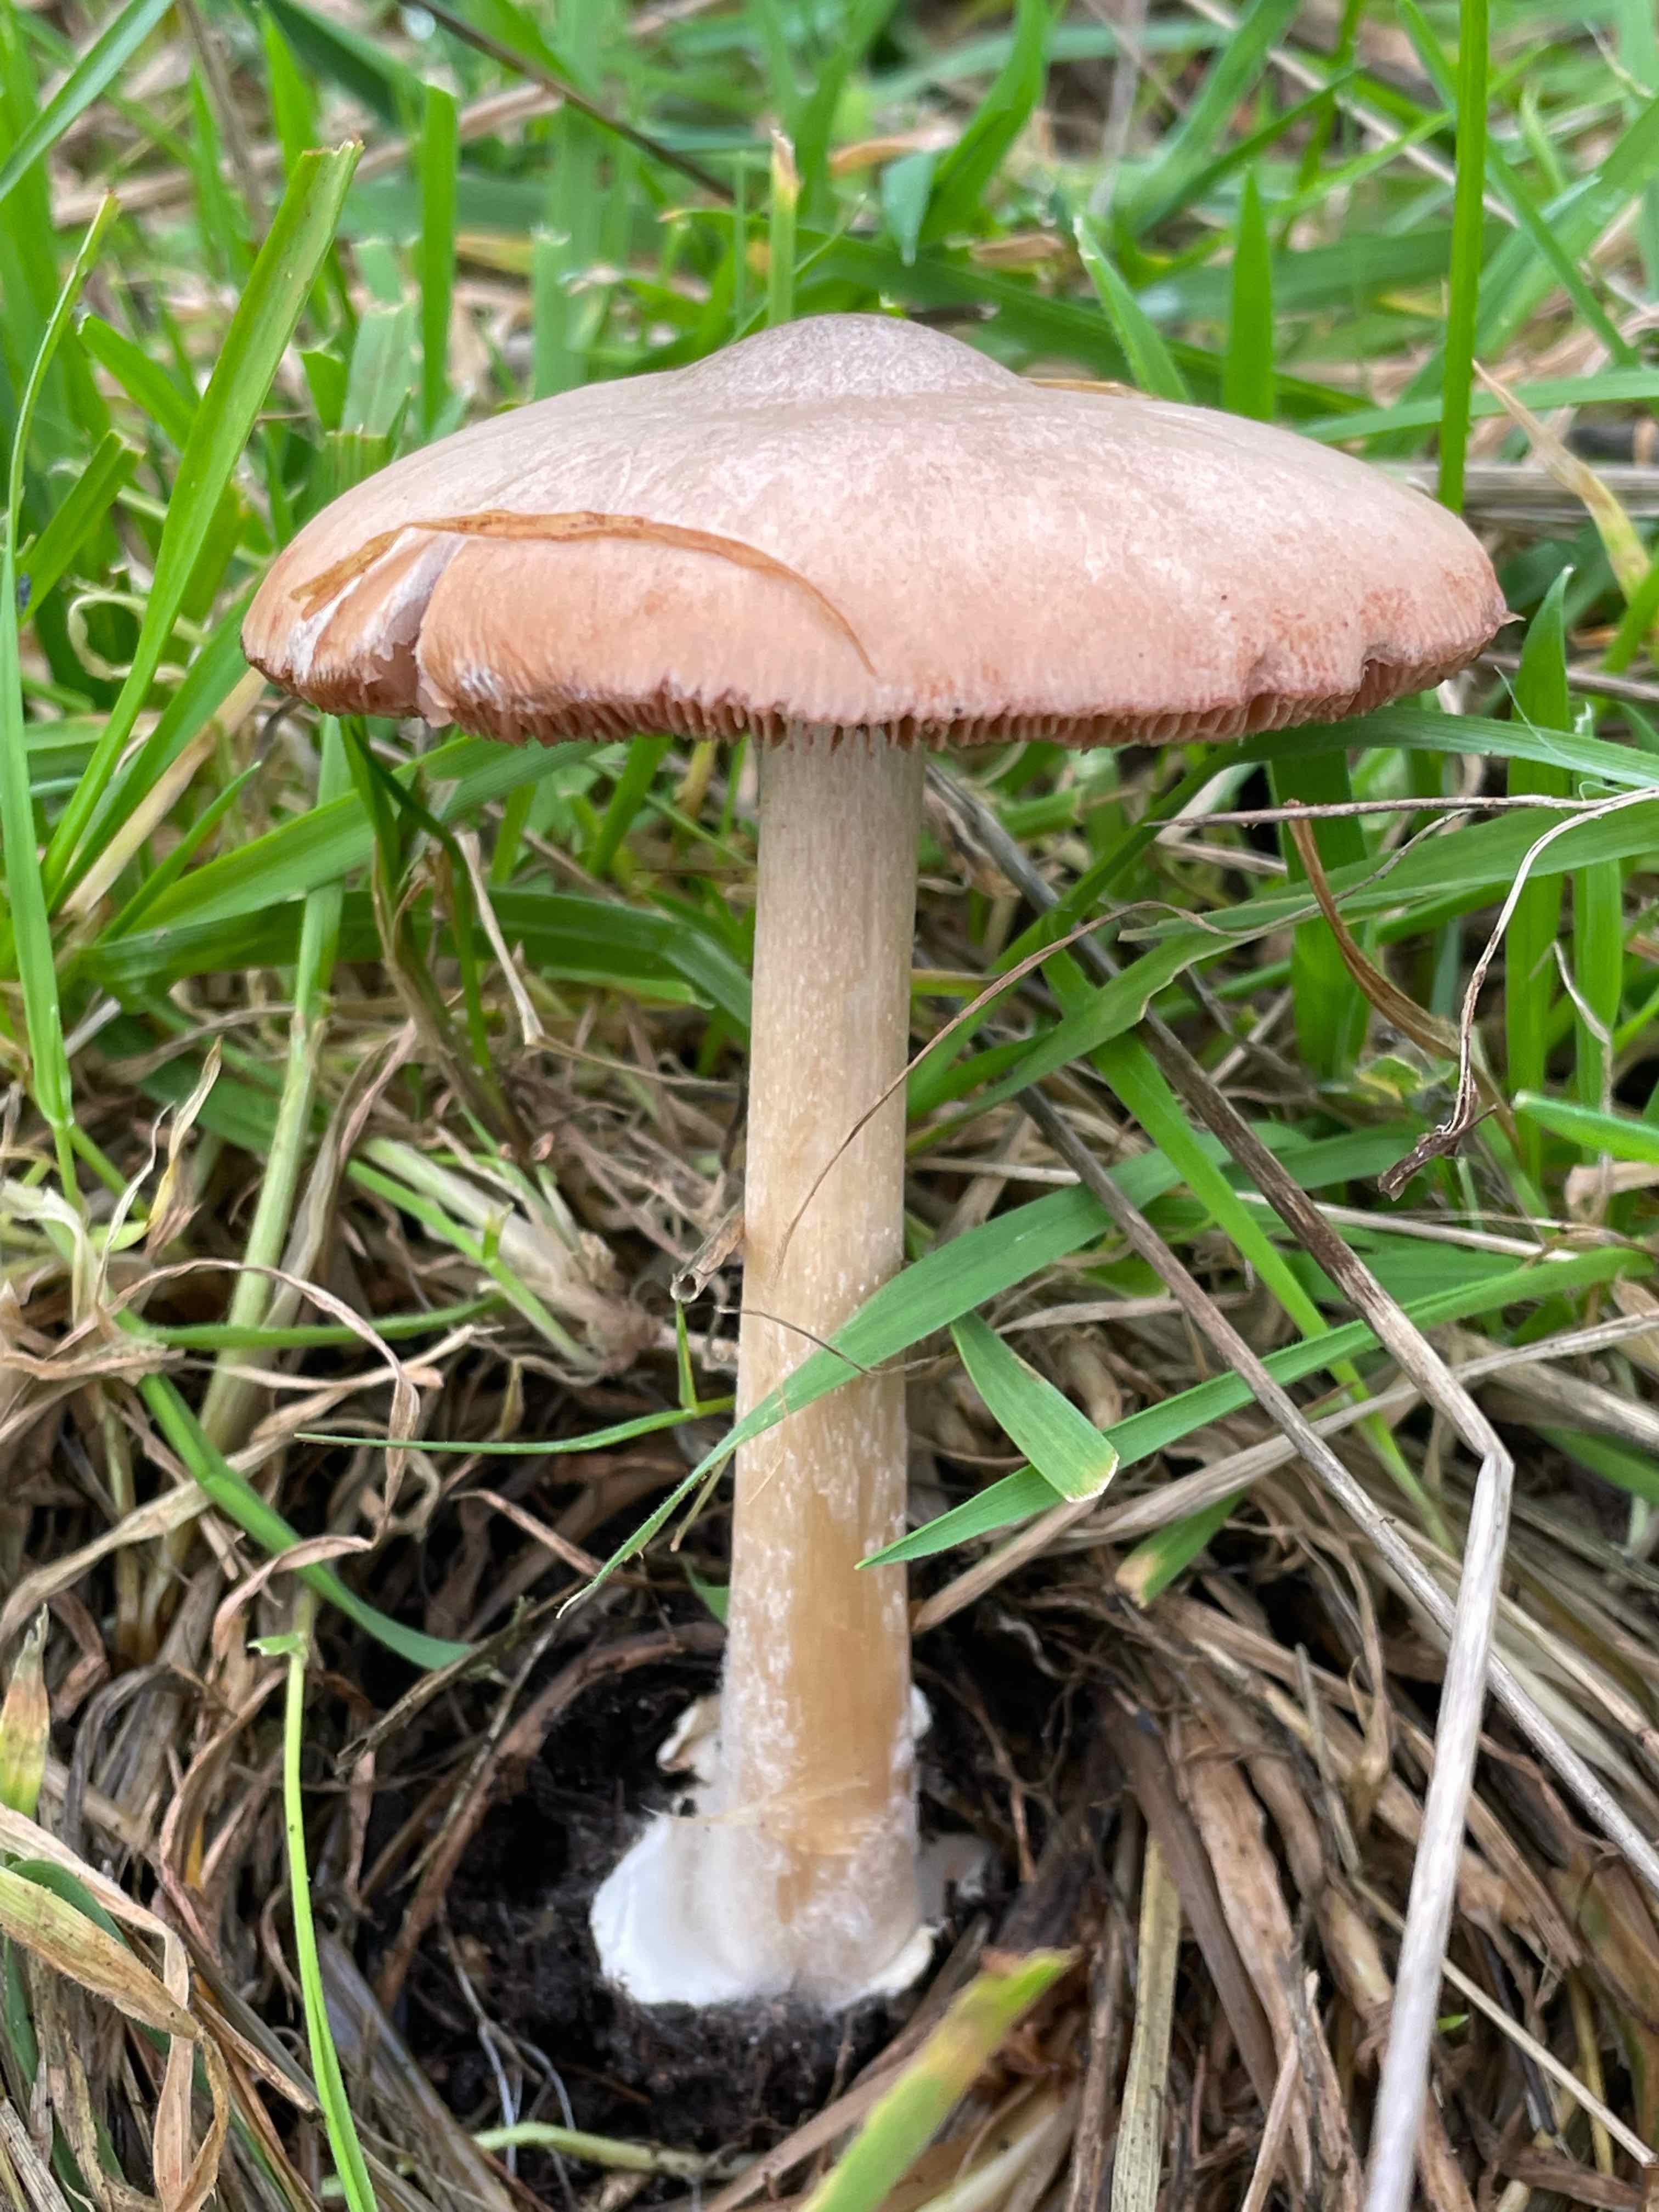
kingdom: Fungi
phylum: Basidiomycota
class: Agaricomycetes
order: Agaricales
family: Pluteaceae
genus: Volvopluteus
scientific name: Volvopluteus gloiocephalus
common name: høj posesvamp
